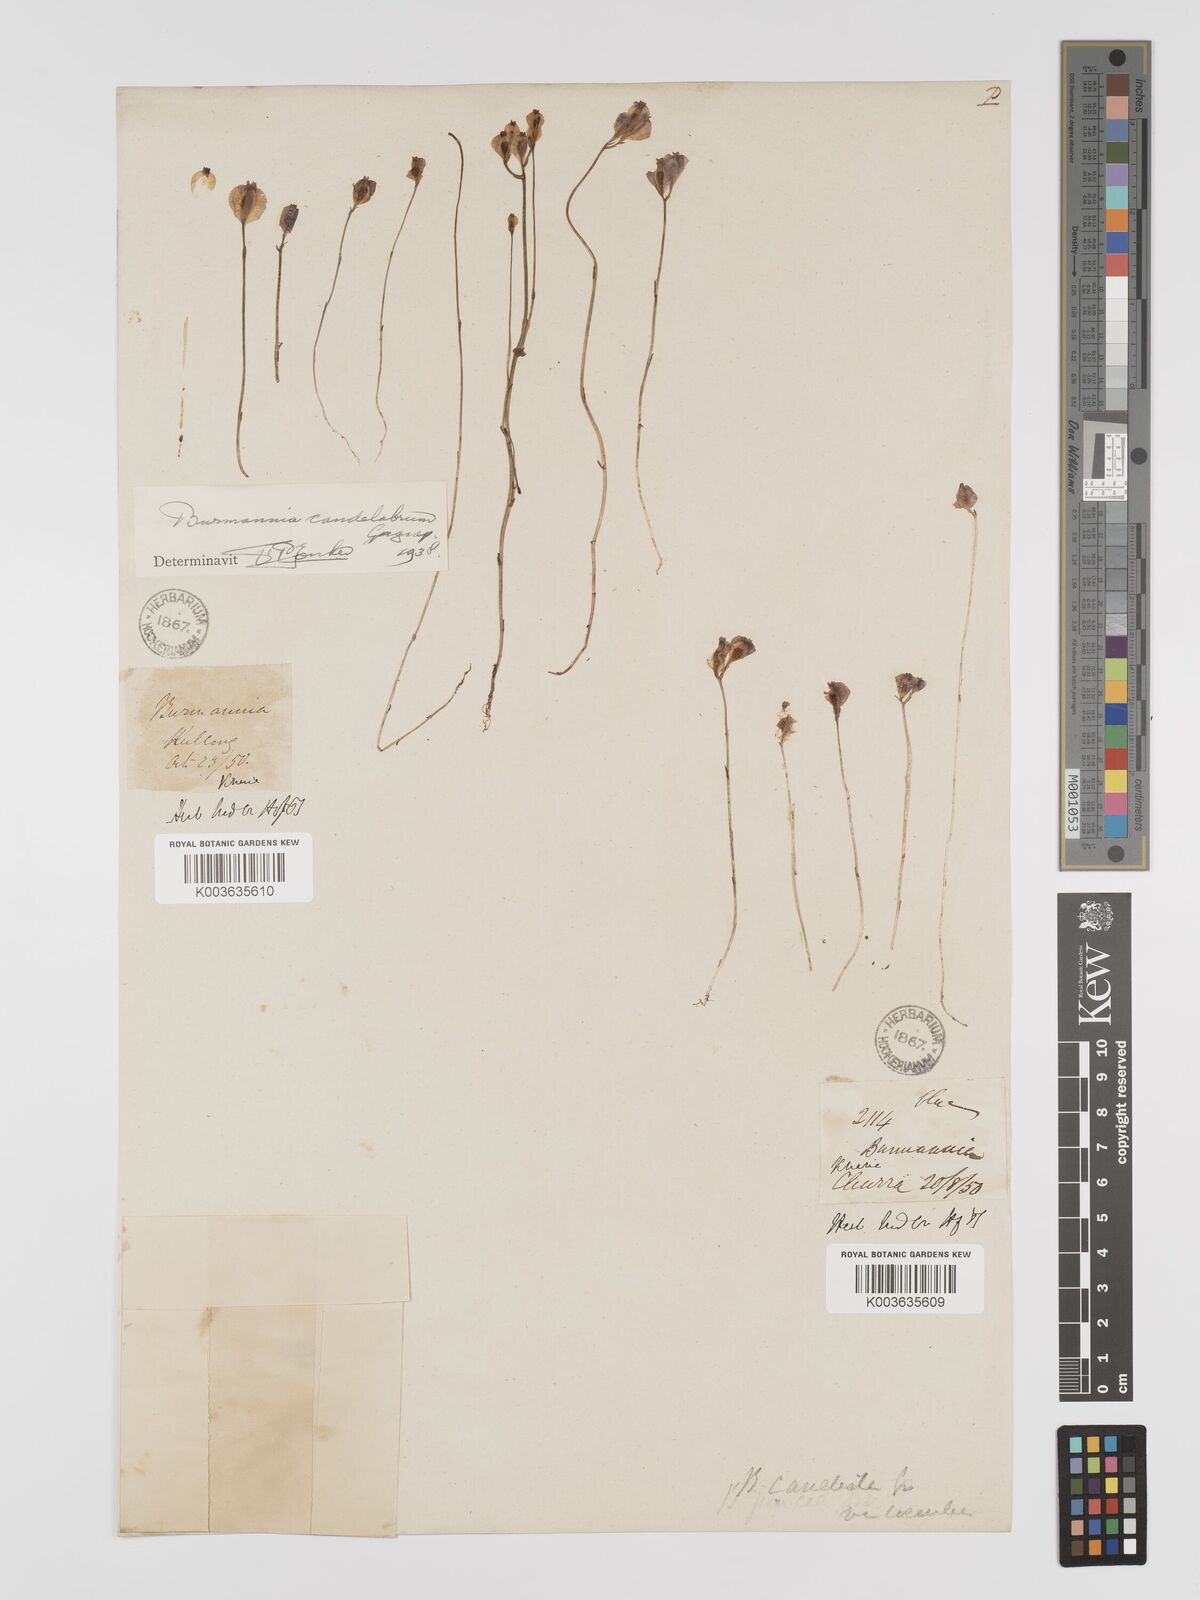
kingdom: Plantae
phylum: Tracheophyta
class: Liliopsida
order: Dioscoreales
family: Burmanniaceae
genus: Burmannia
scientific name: Burmannia candelabrum
